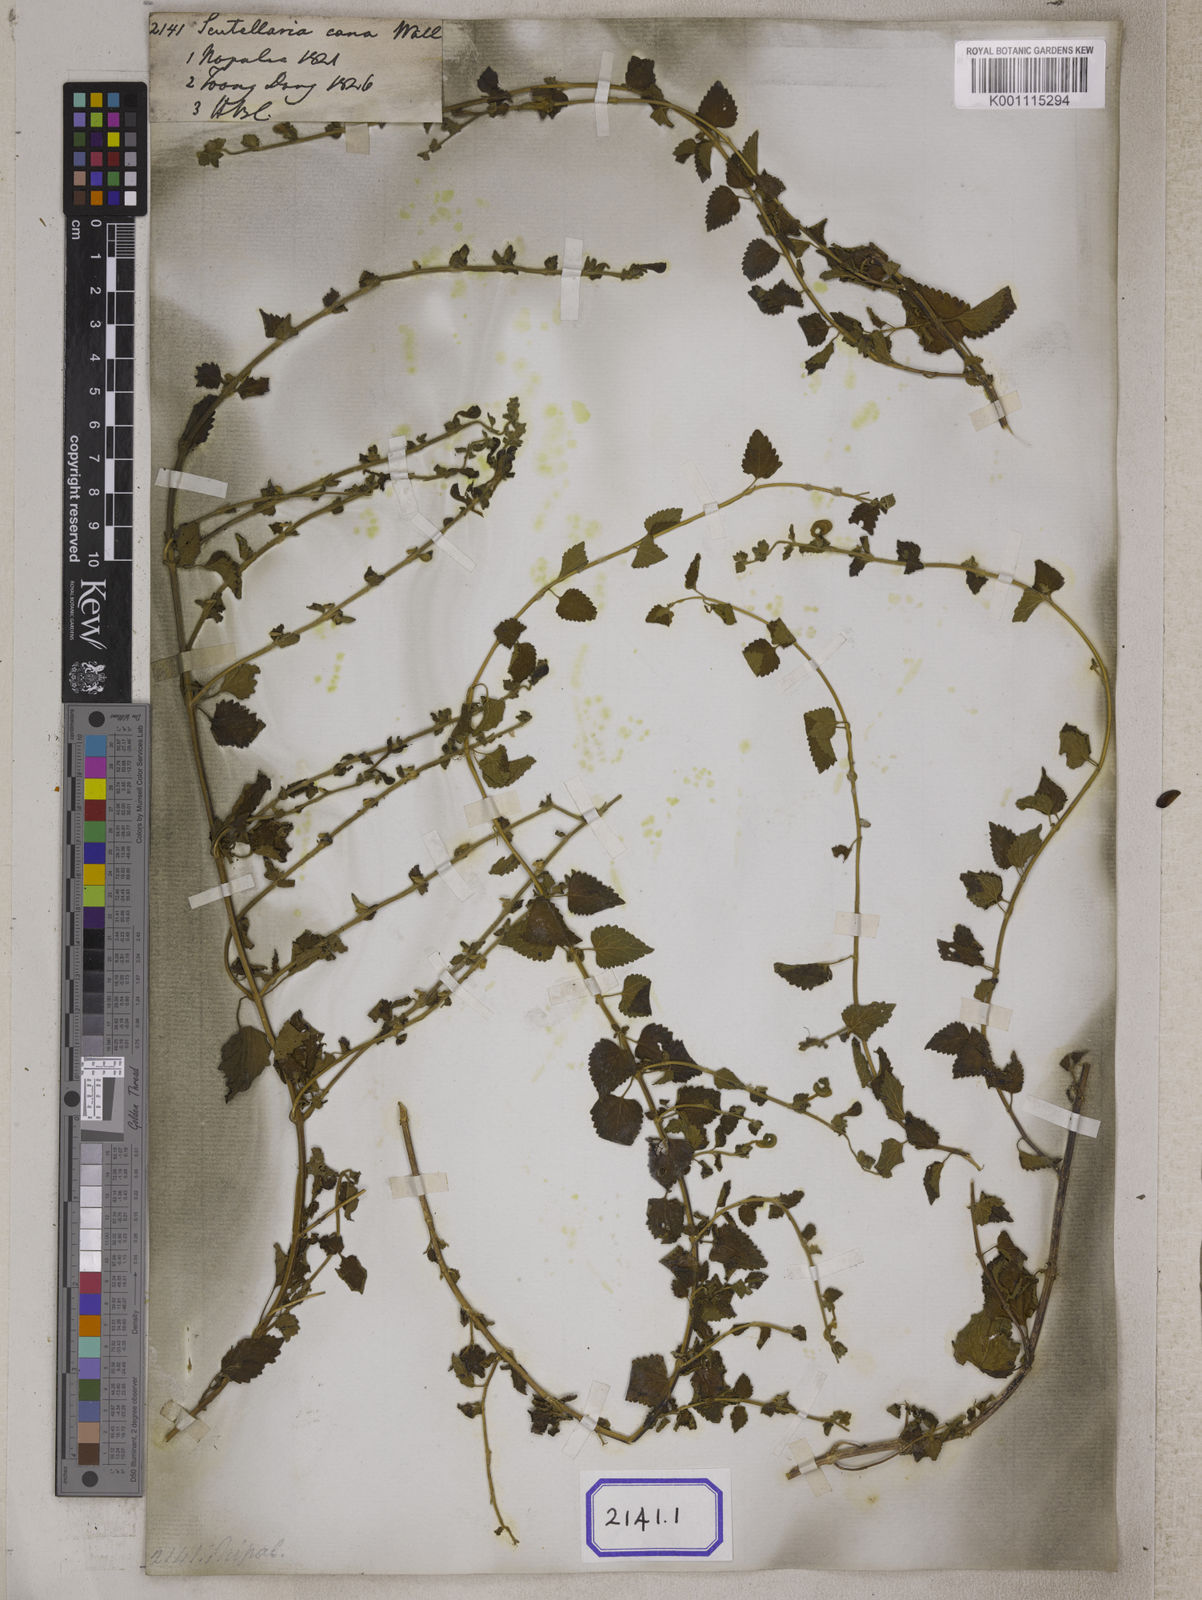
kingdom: Plantae
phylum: Tracheophyta
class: Magnoliopsida
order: Lamiales
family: Lamiaceae
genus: Scutellaria
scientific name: Scutellaria
